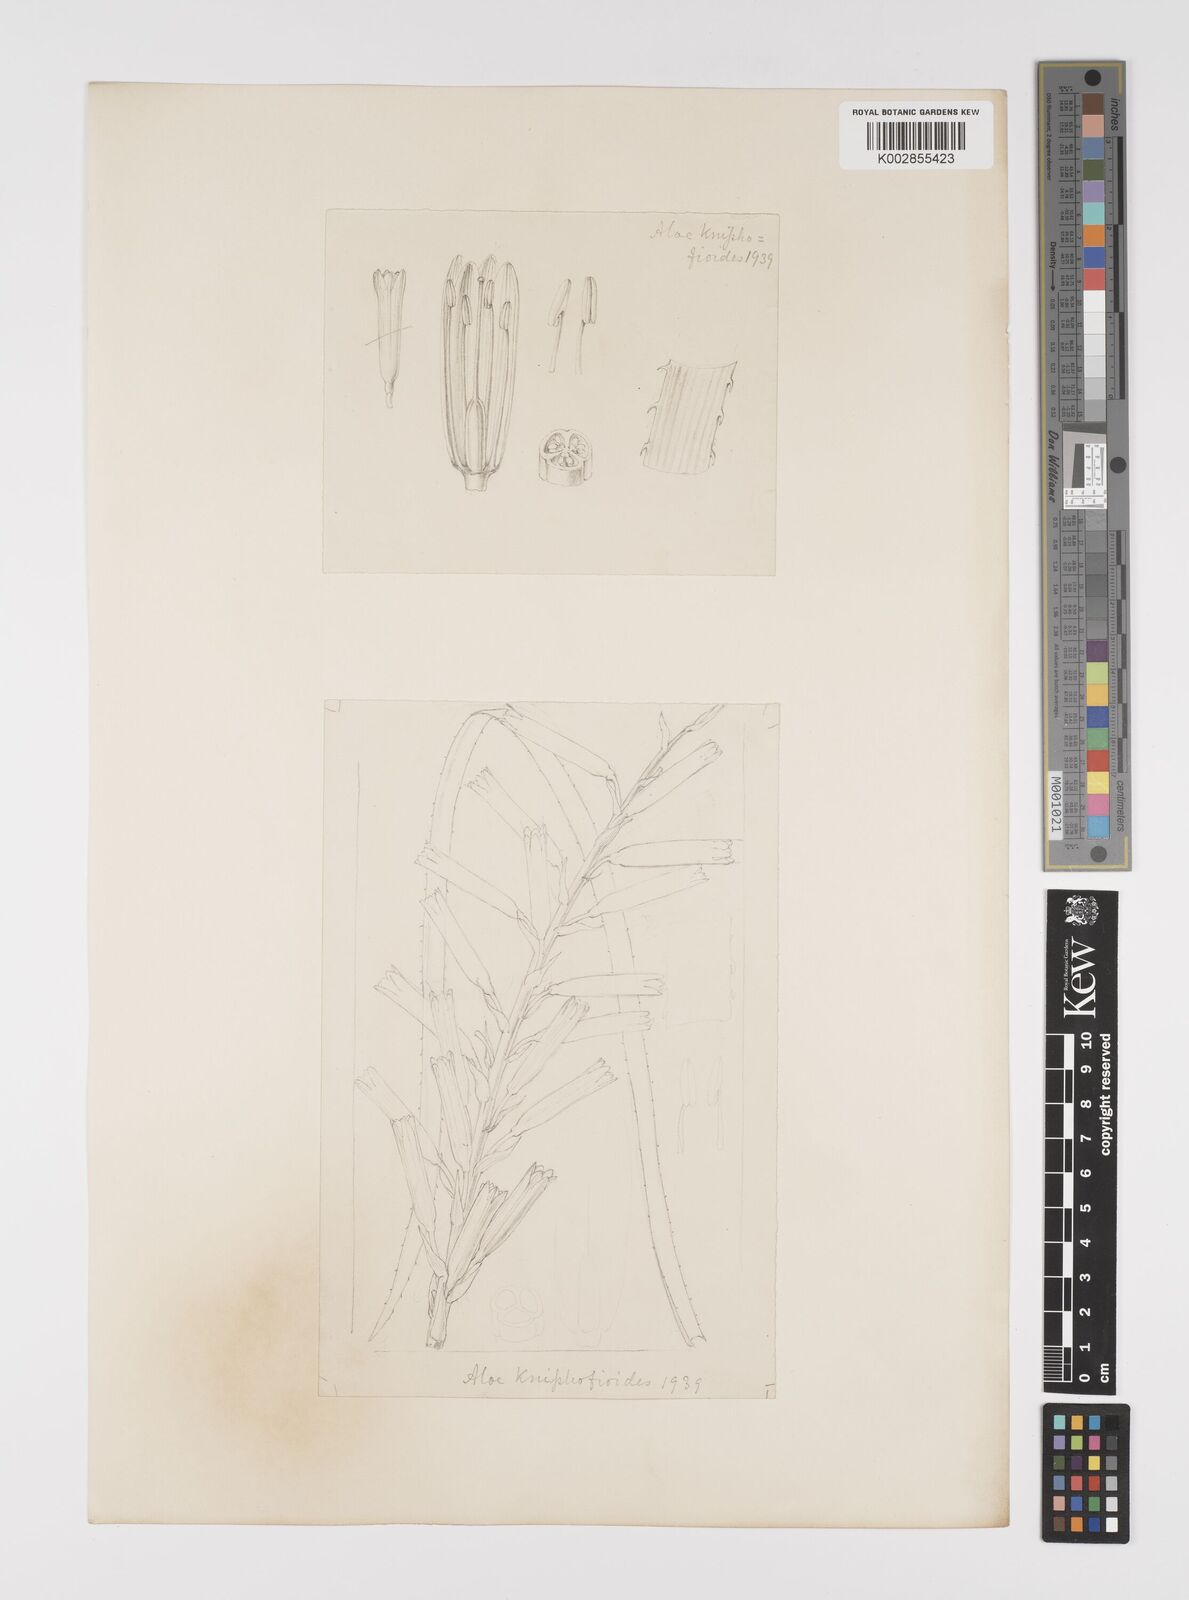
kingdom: Plantae
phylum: Tracheophyta
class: Liliopsida
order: Asparagales
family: Asphodelaceae
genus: Aloe
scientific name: Aloe kniphofioides
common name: Grass aloe
